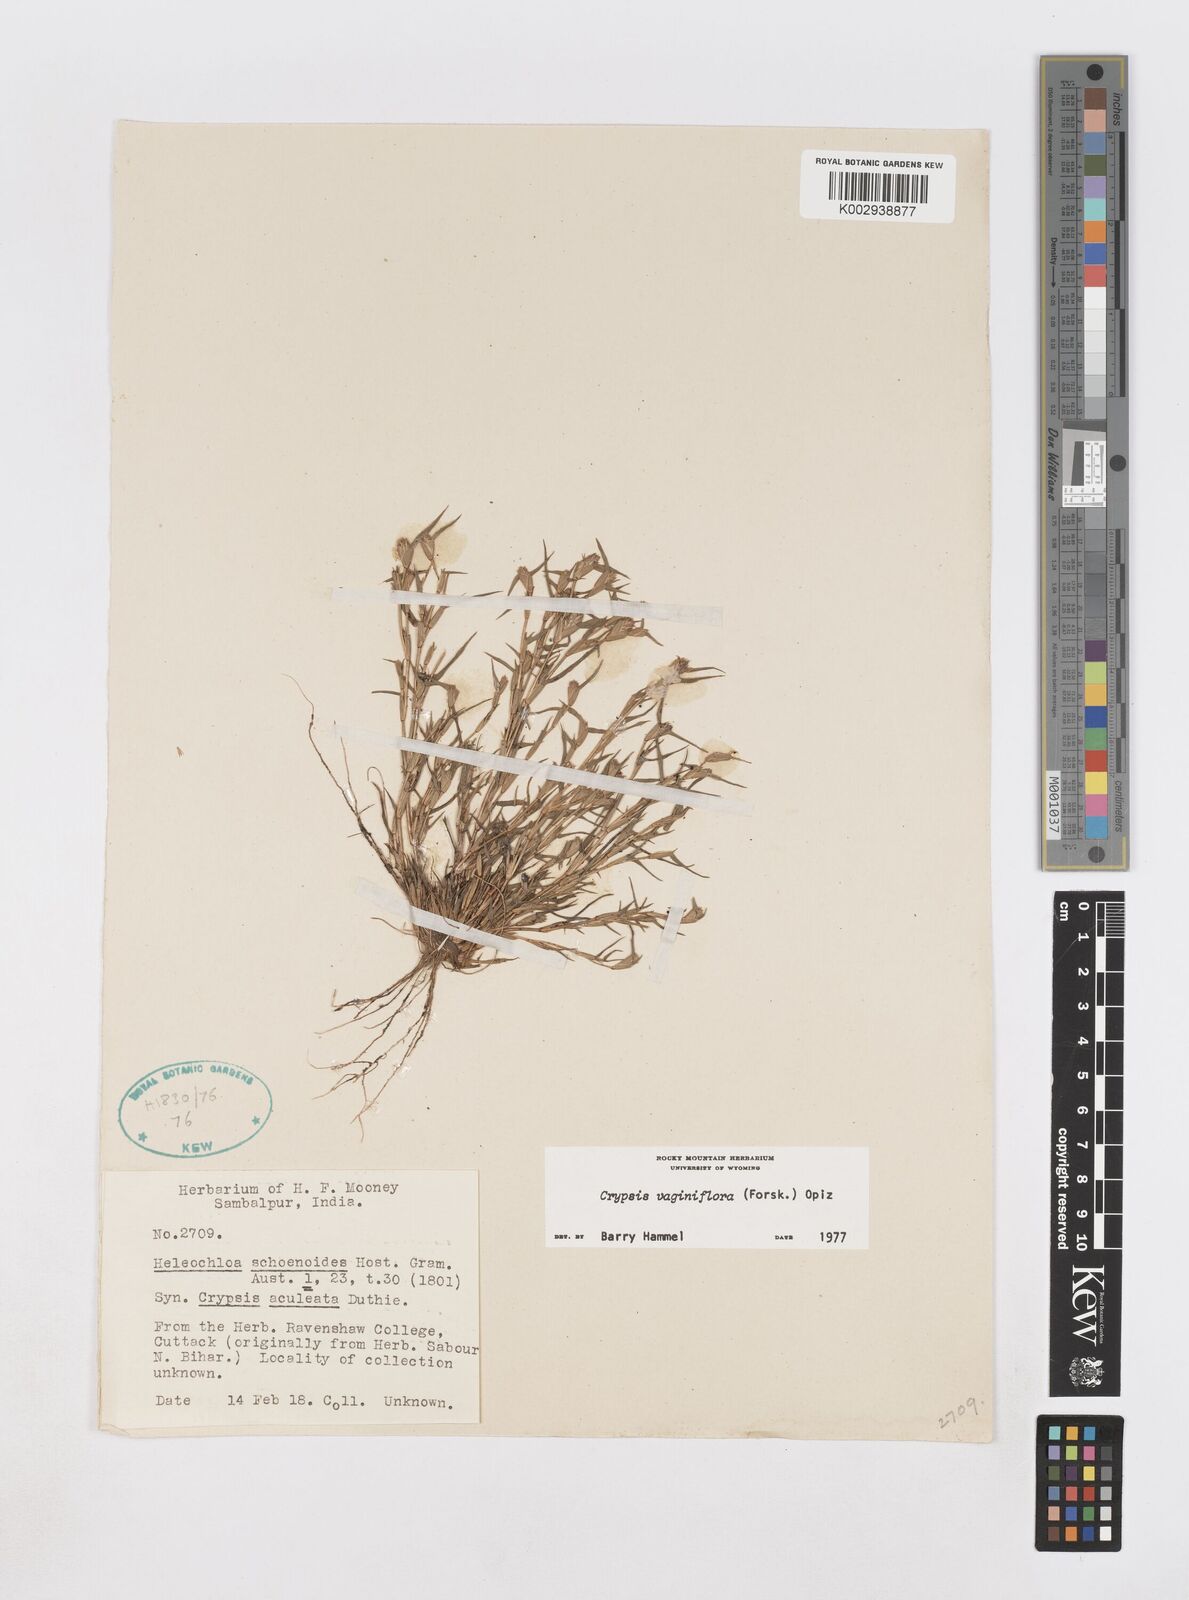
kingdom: Plantae
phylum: Tracheophyta
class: Liliopsida
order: Poales
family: Poaceae
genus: Sporobolus
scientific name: Sporobolus niliacus
